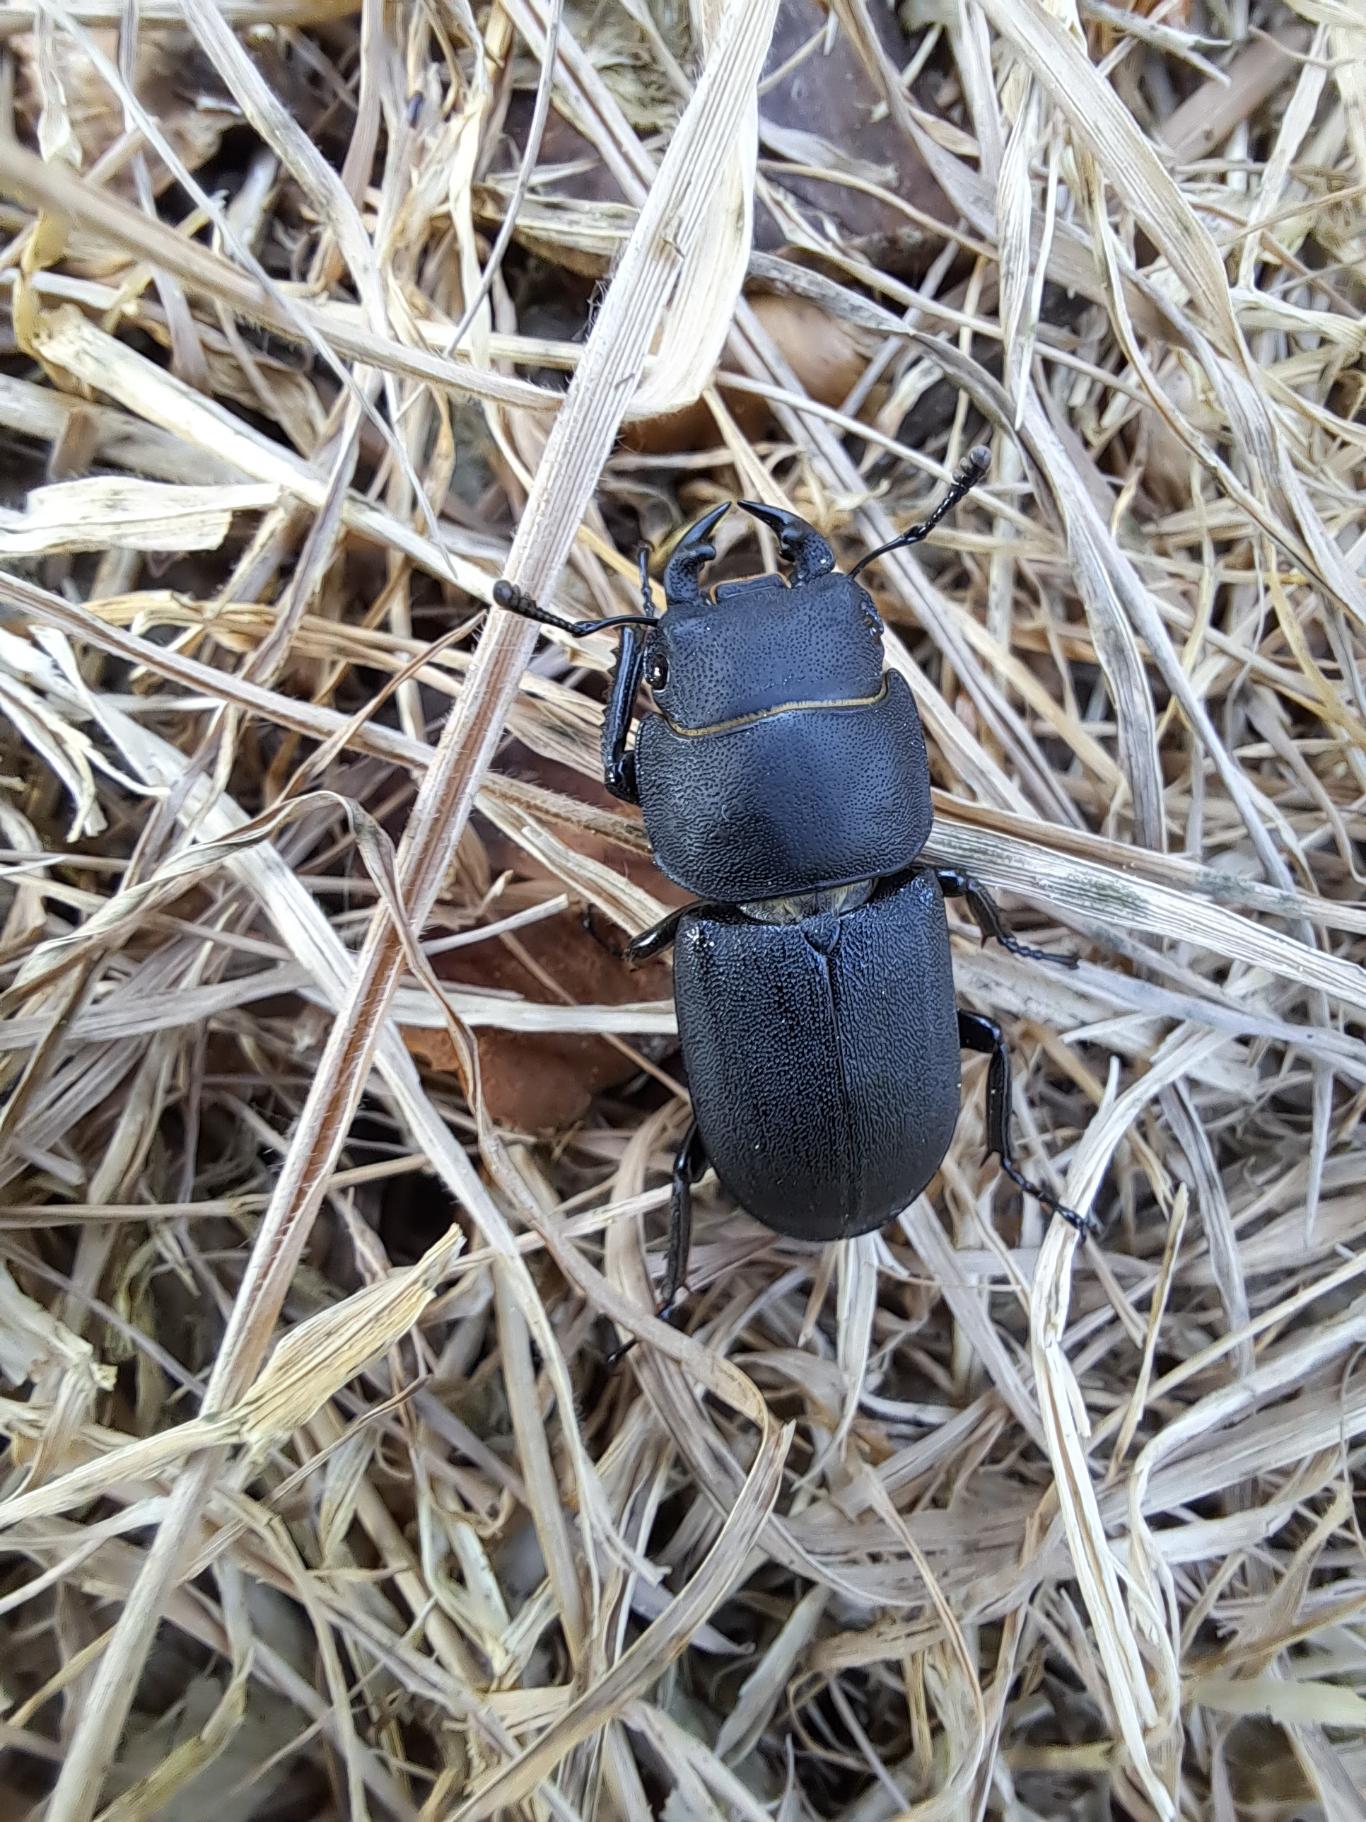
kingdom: Animalia
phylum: Arthropoda
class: Insecta
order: Coleoptera
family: Lucanidae
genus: Dorcus
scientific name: Dorcus parallelipipedus
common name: Bøghjort
